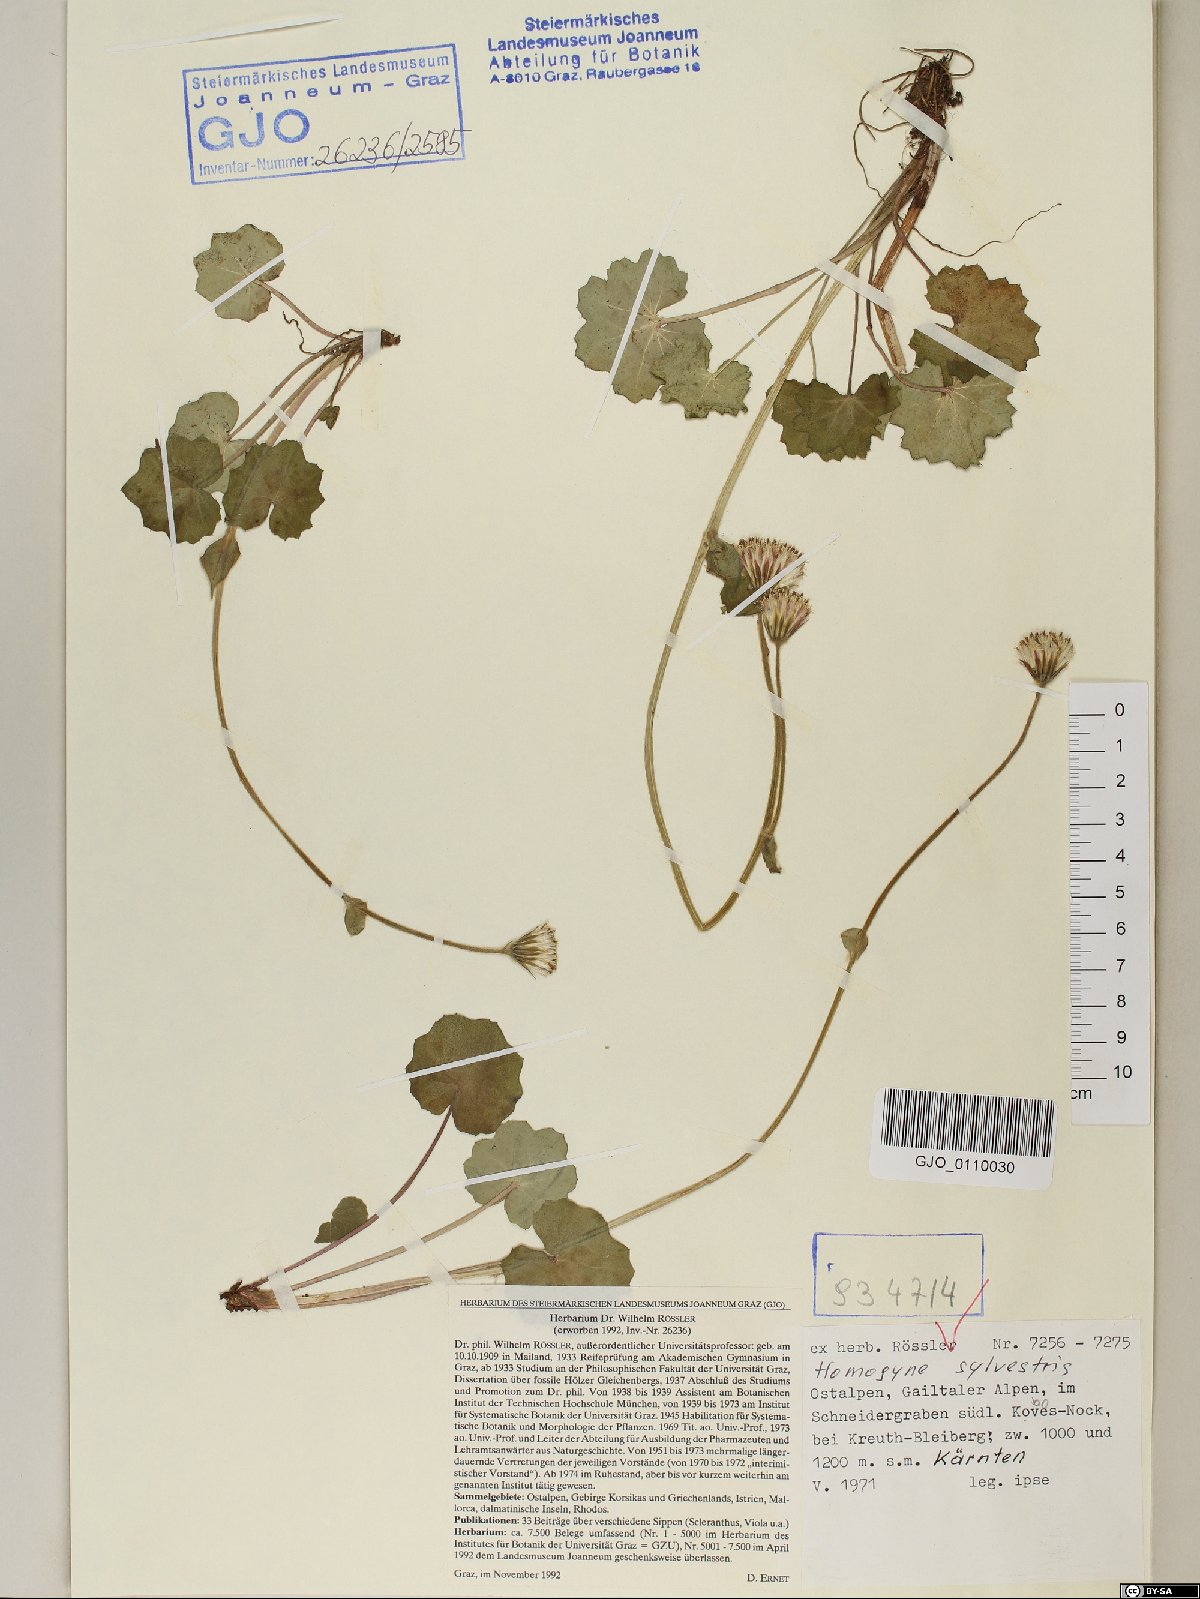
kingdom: Plantae
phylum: Tracheophyta
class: Magnoliopsida
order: Asterales
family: Asteraceae
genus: Homogyne
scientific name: Homogyne sylvestris
